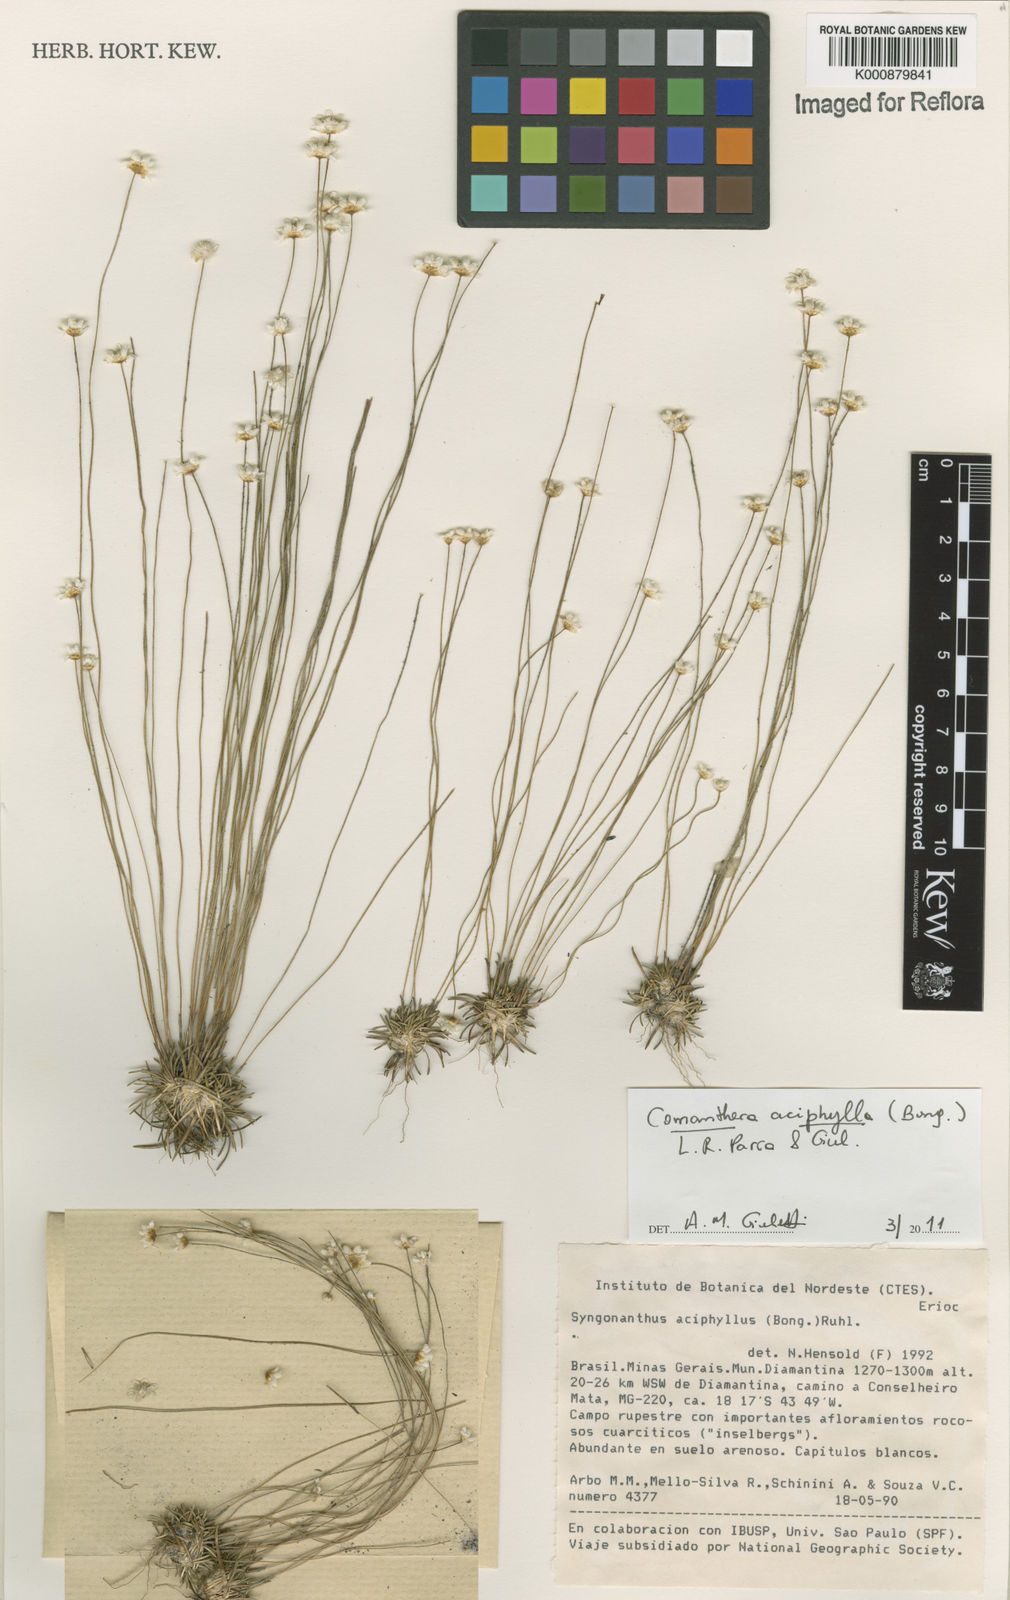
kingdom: Plantae
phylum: Tracheophyta
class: Liliopsida
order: Poales
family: Eriocaulaceae
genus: Comanthera
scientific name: Comanthera aciphylla
